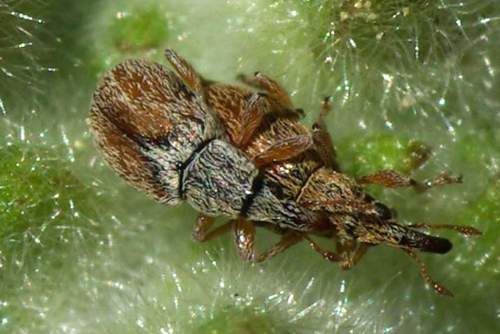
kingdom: Animalia
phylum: Arthropoda
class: Insecta
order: Coleoptera
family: Apionidae
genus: Malvapion
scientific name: Malvapion malvae
